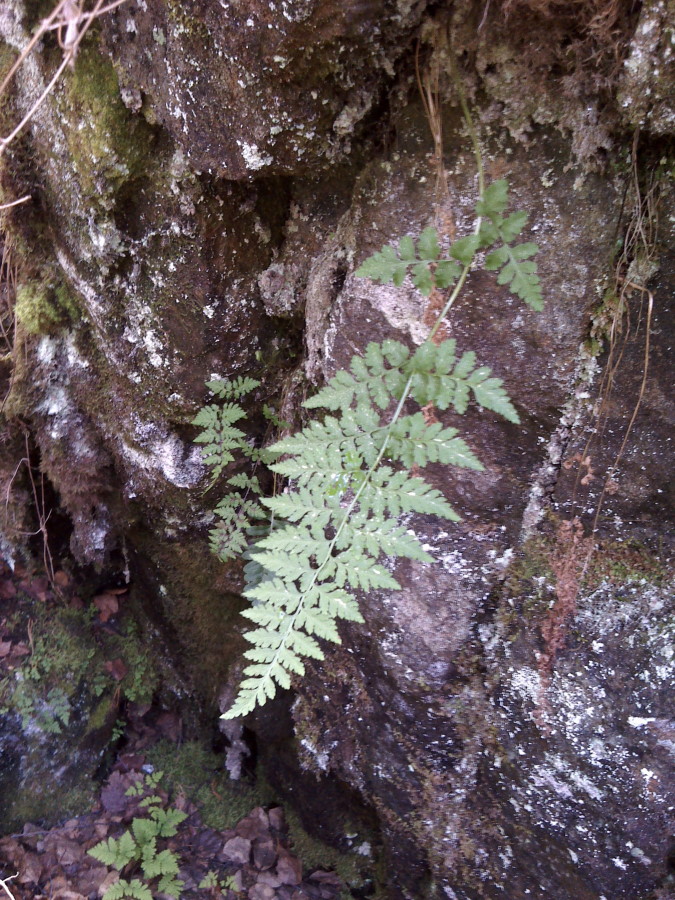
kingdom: Plantae
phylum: Tracheophyta
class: Polypodiopsida
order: Polypodiales
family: Cystopteridaceae
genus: Cystopteris
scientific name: Cystopteris fragilis
